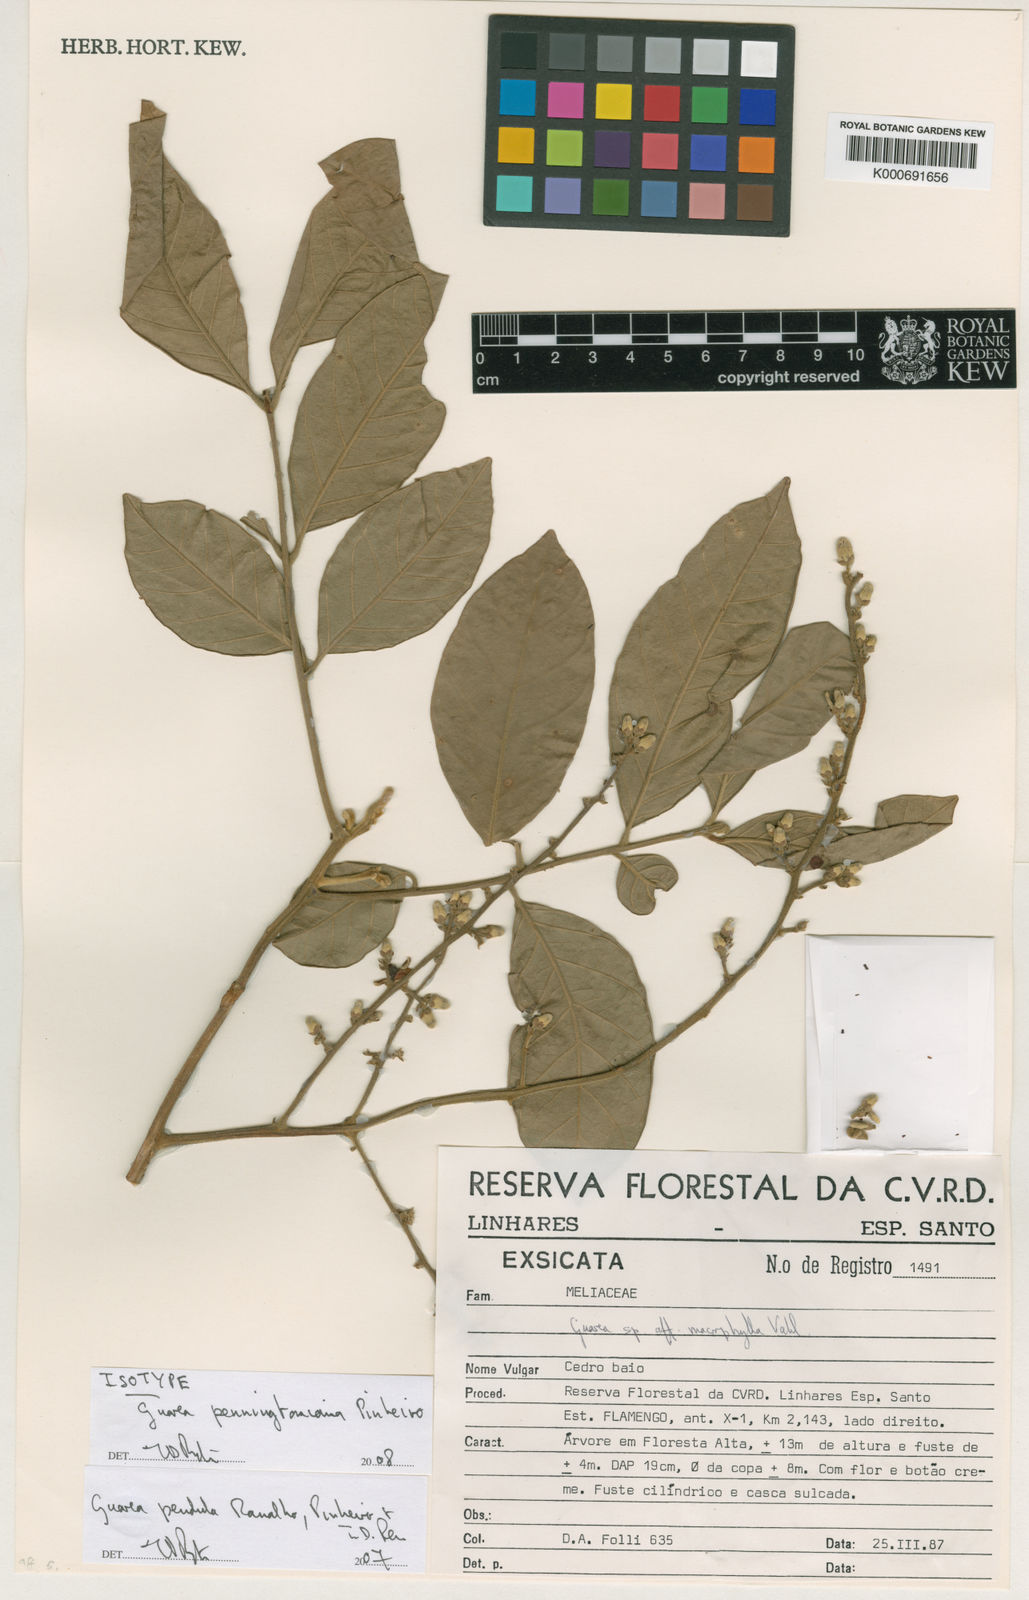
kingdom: Plantae
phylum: Tracheophyta
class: Magnoliopsida
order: Sapindales
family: Meliaceae
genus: Guarea
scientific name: Guarea fistulosa
